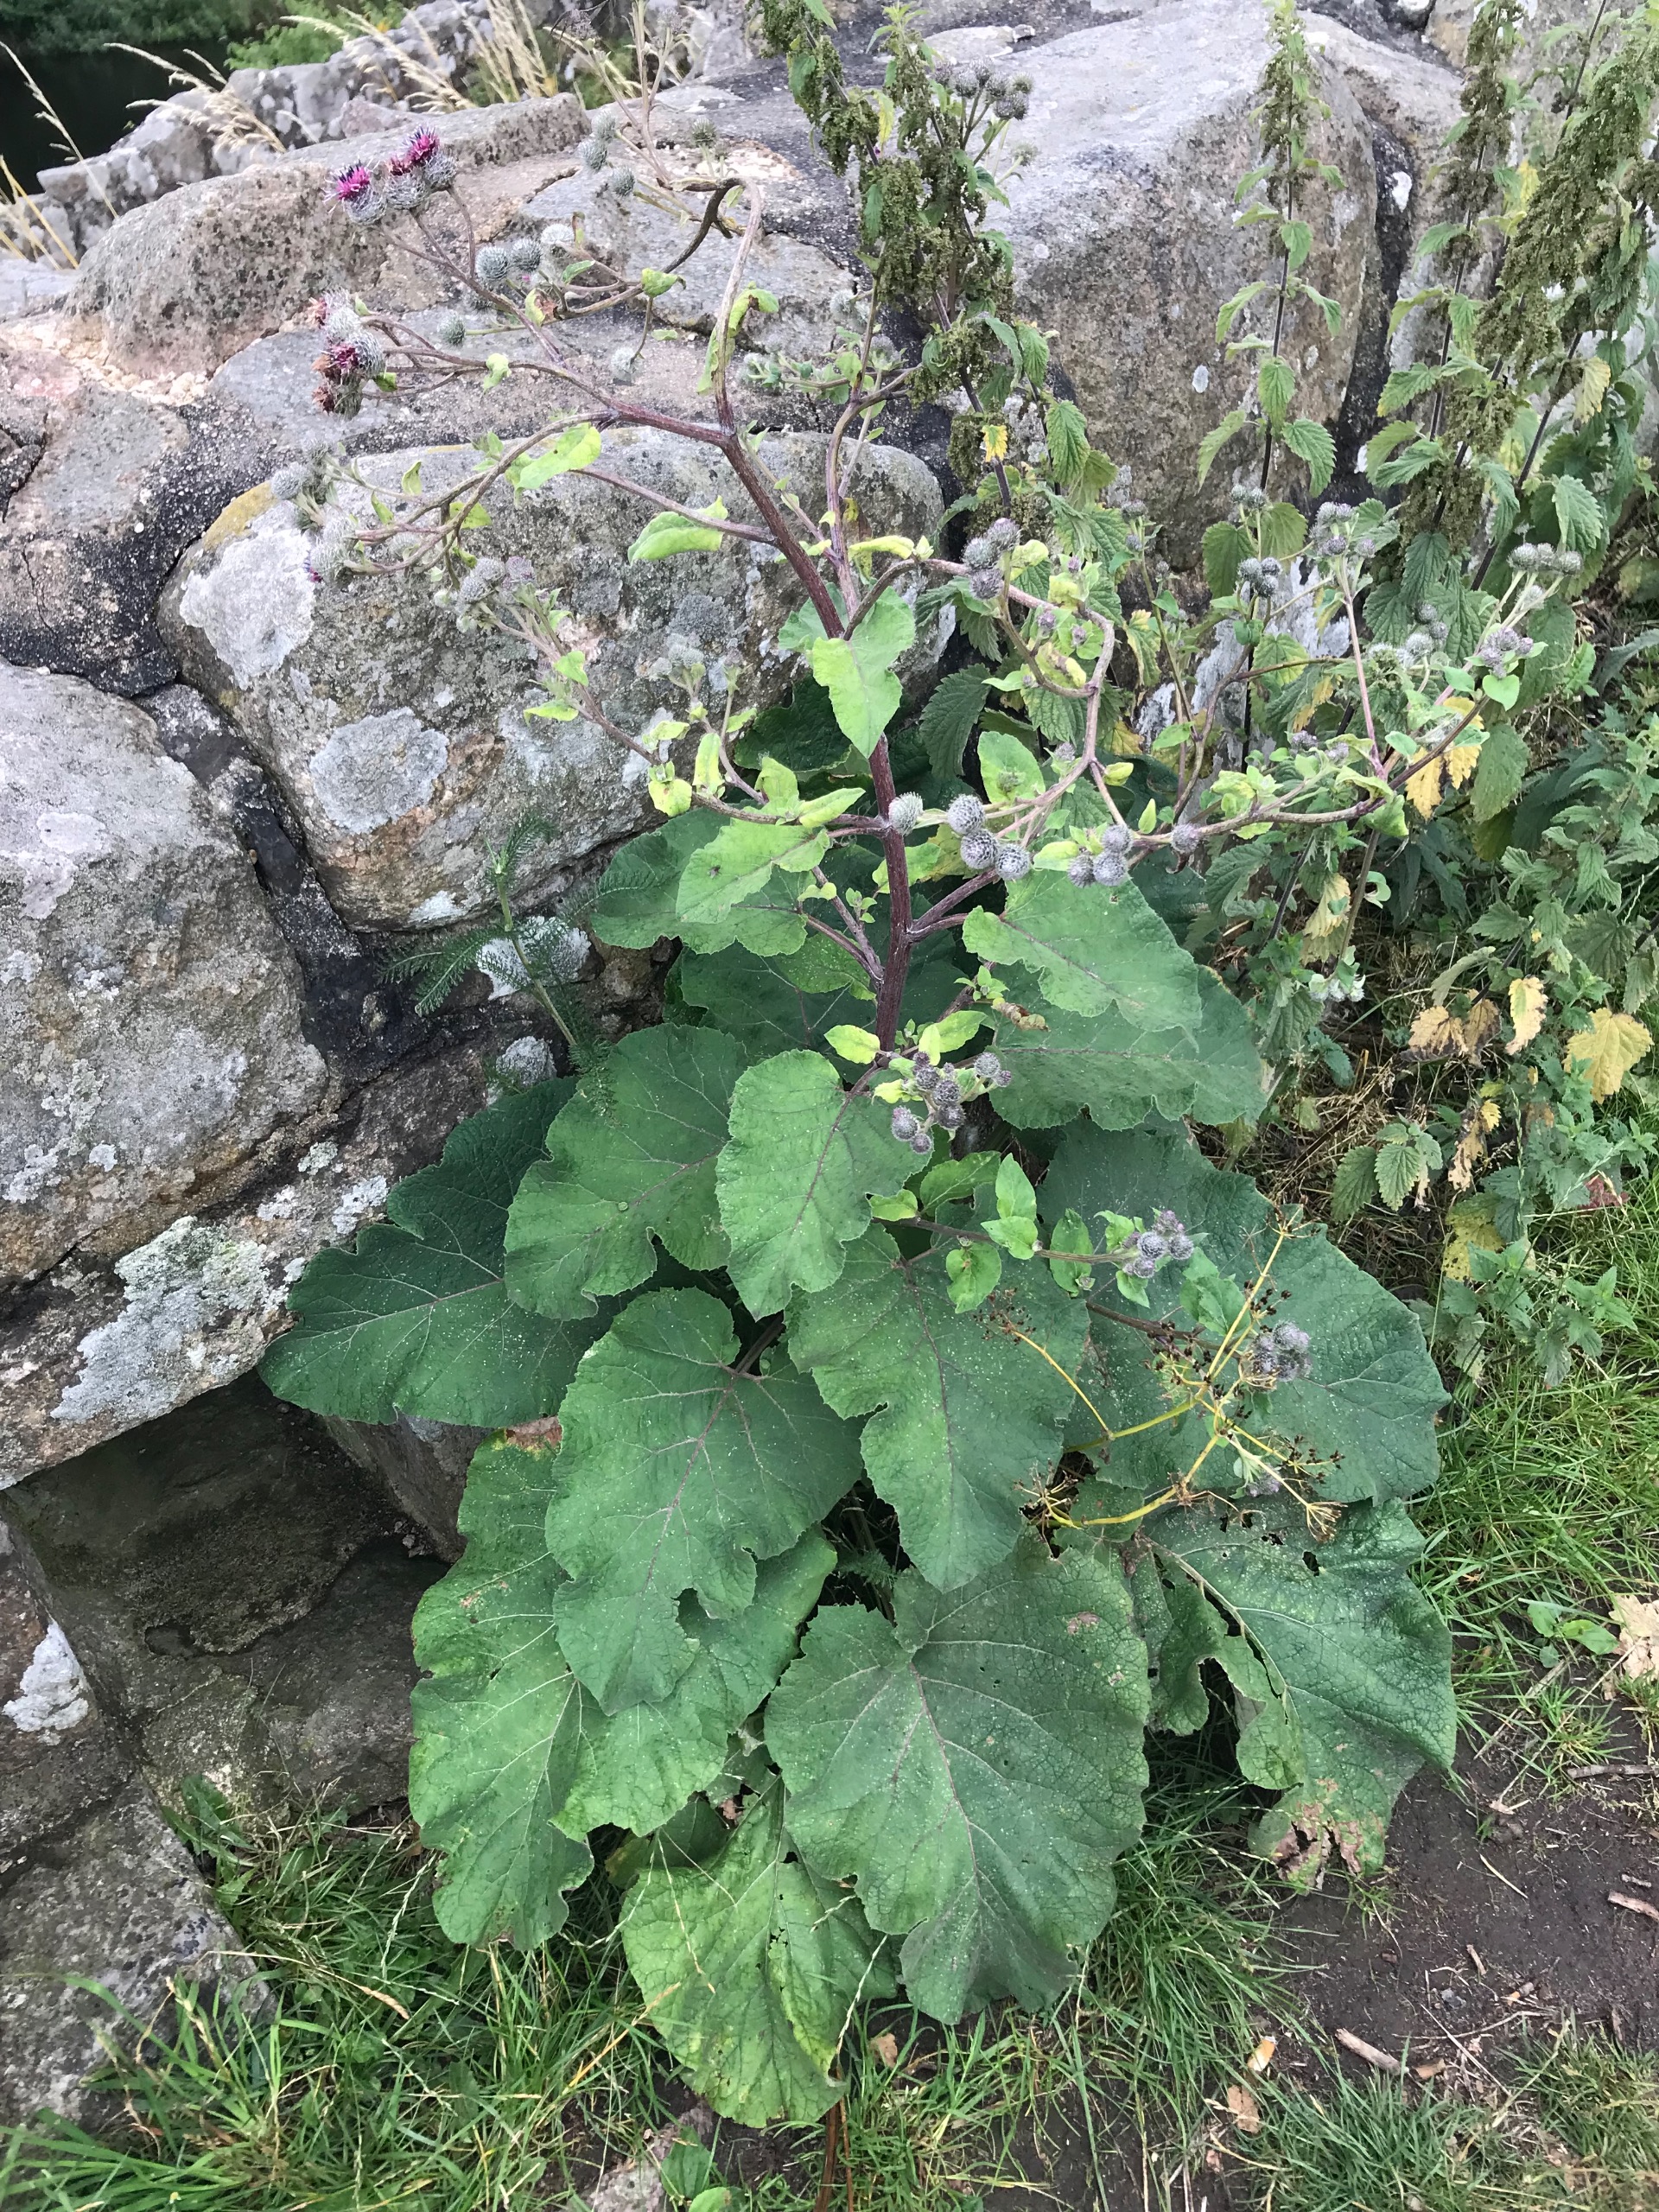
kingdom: Plantae
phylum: Tracheophyta
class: Magnoliopsida
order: Asterales
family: Asteraceae
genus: Arctium
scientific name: Arctium tomentosum
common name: Filtet burre
